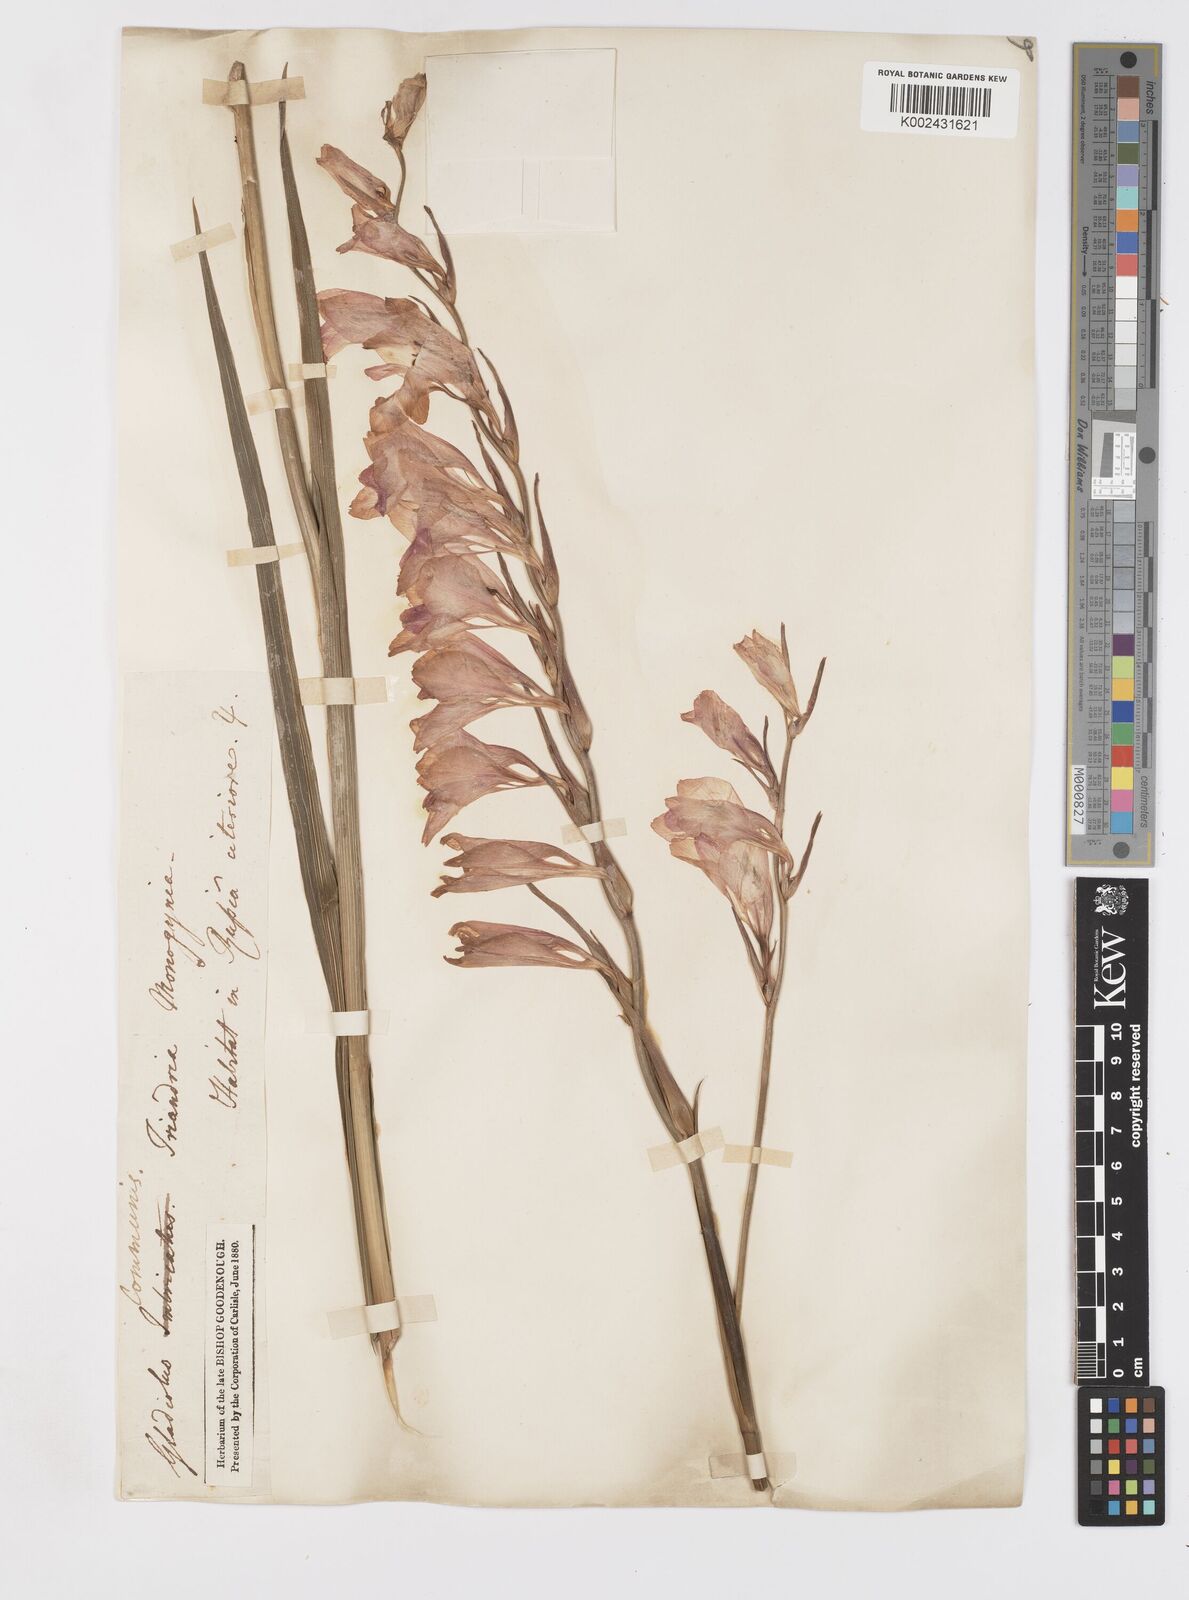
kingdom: Plantae
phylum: Tracheophyta
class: Liliopsida
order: Asparagales
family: Iridaceae
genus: Gladiolus
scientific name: Gladiolus communis
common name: Eastern gladiolus
